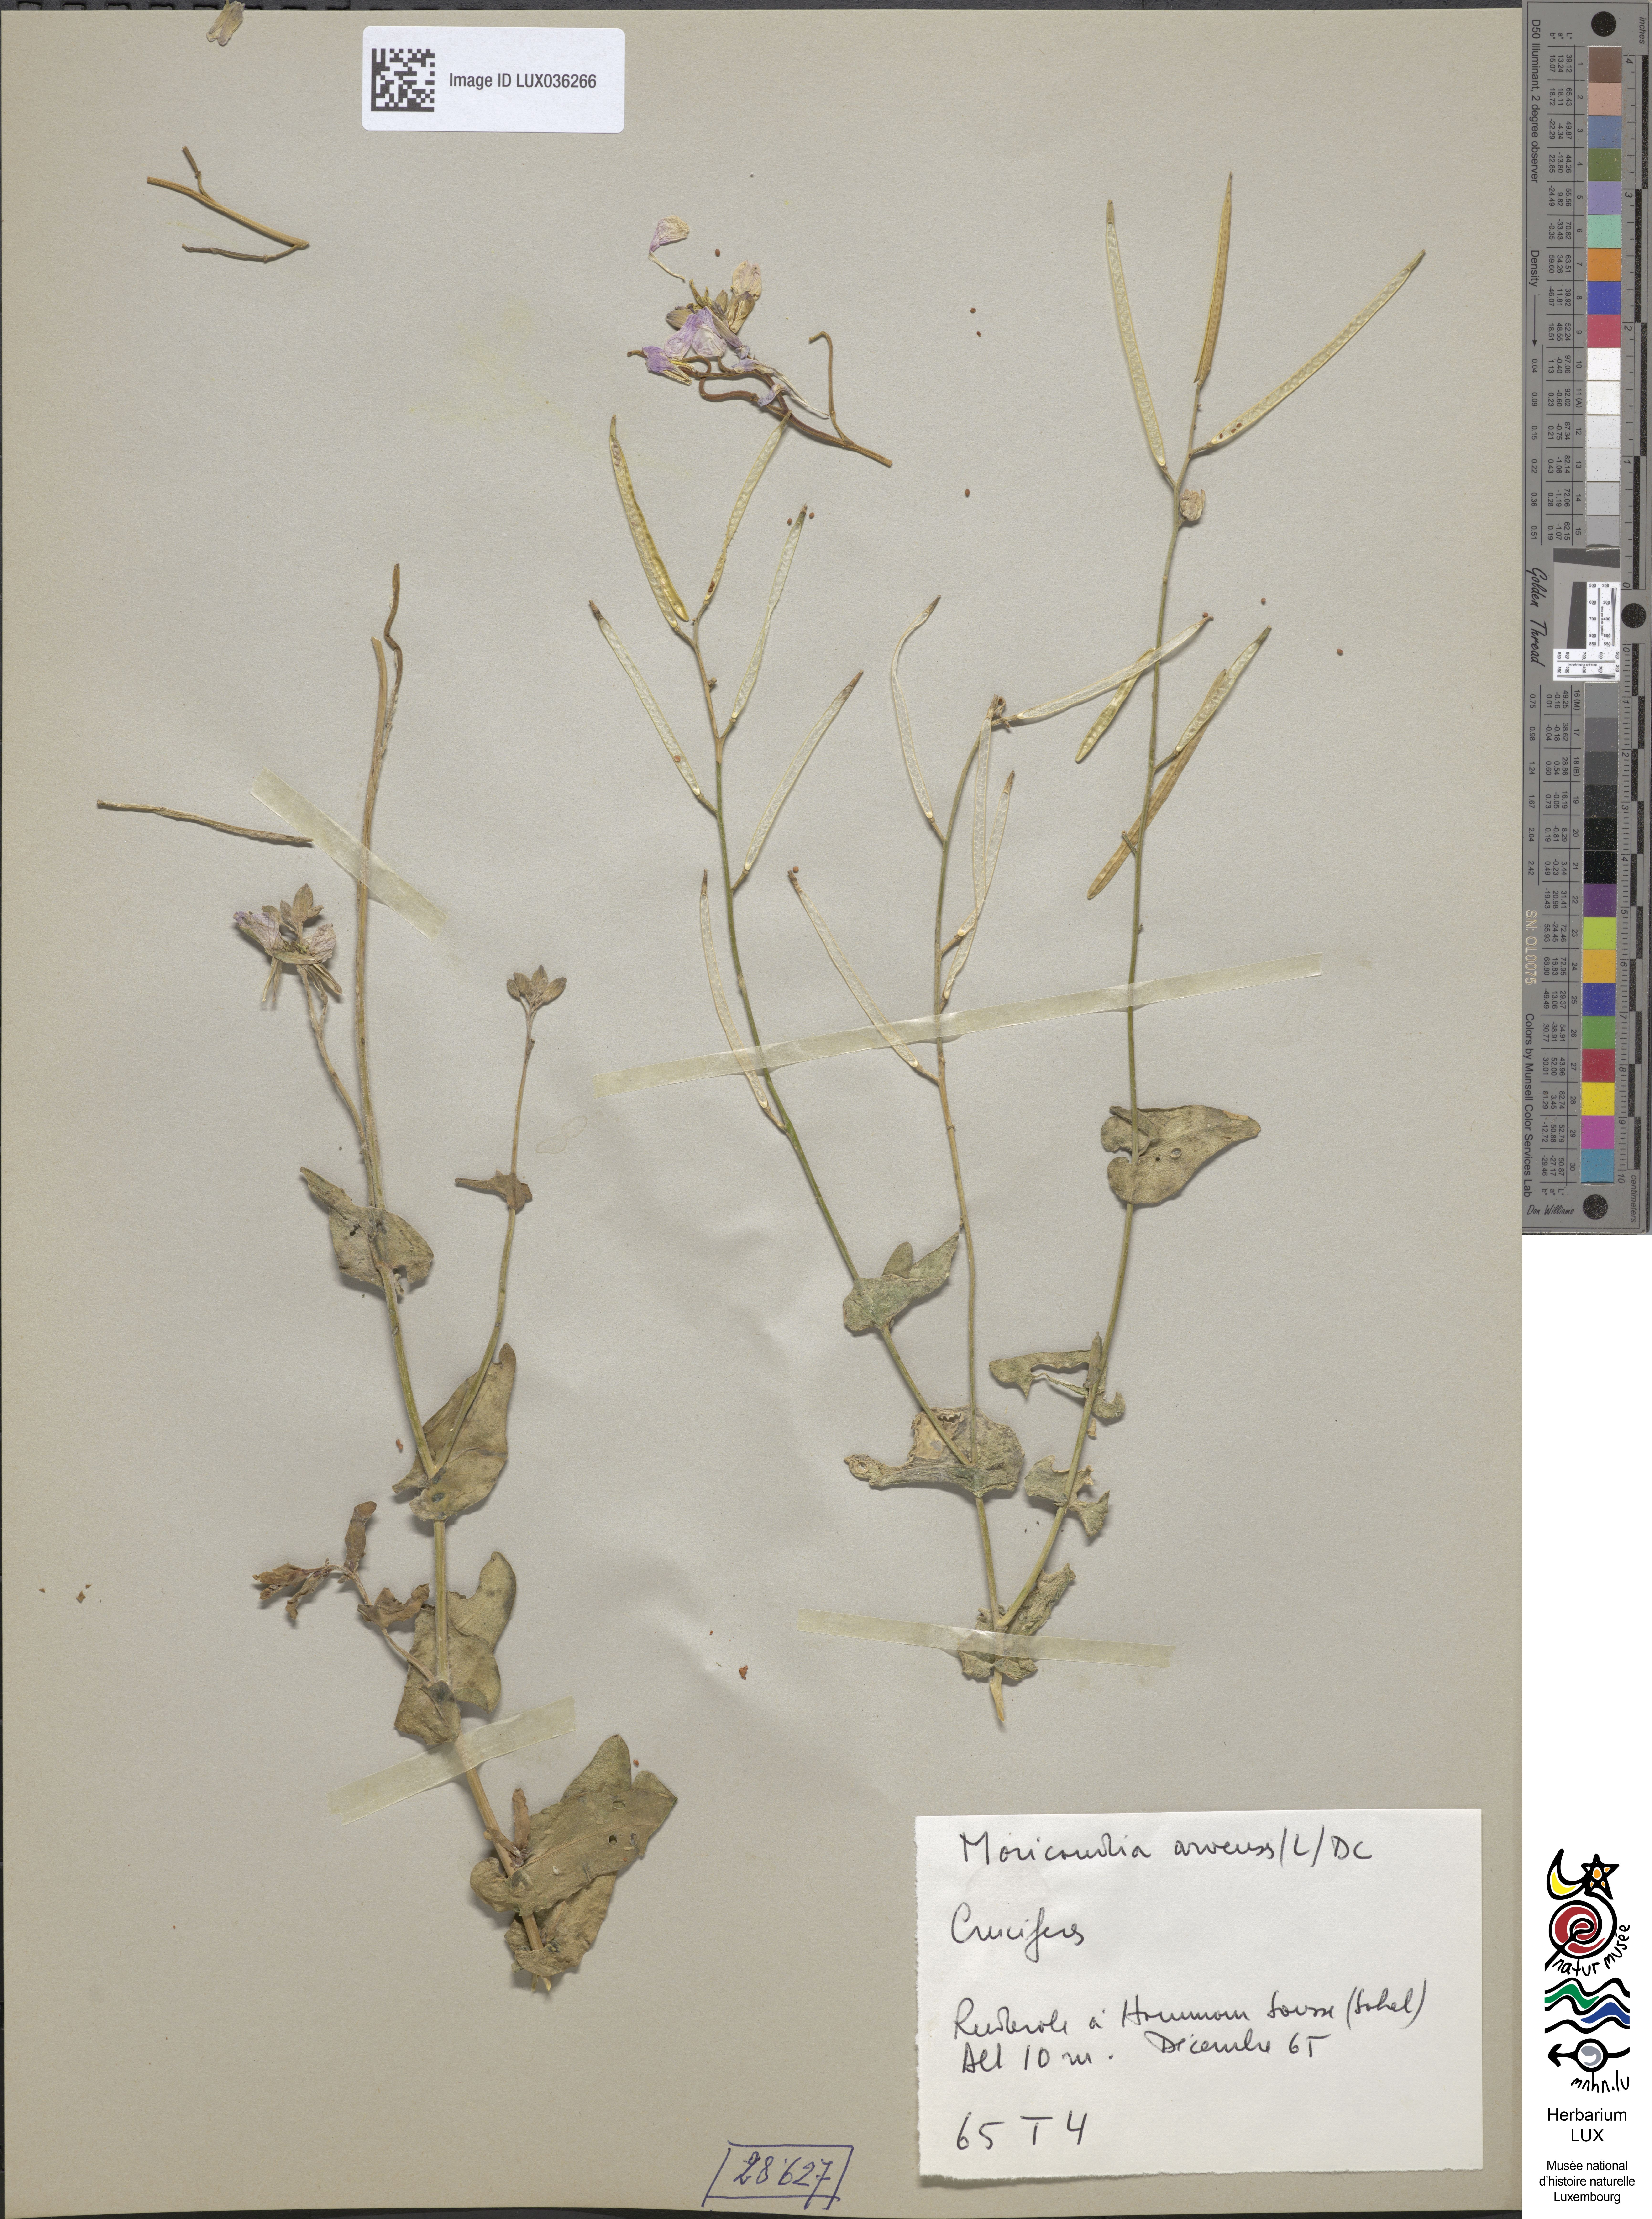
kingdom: Plantae
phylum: Tracheophyta
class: Magnoliopsida
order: Brassicales
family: Brassicaceae
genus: Moricandia
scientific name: Moricandia arvensis
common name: Purple mistress
